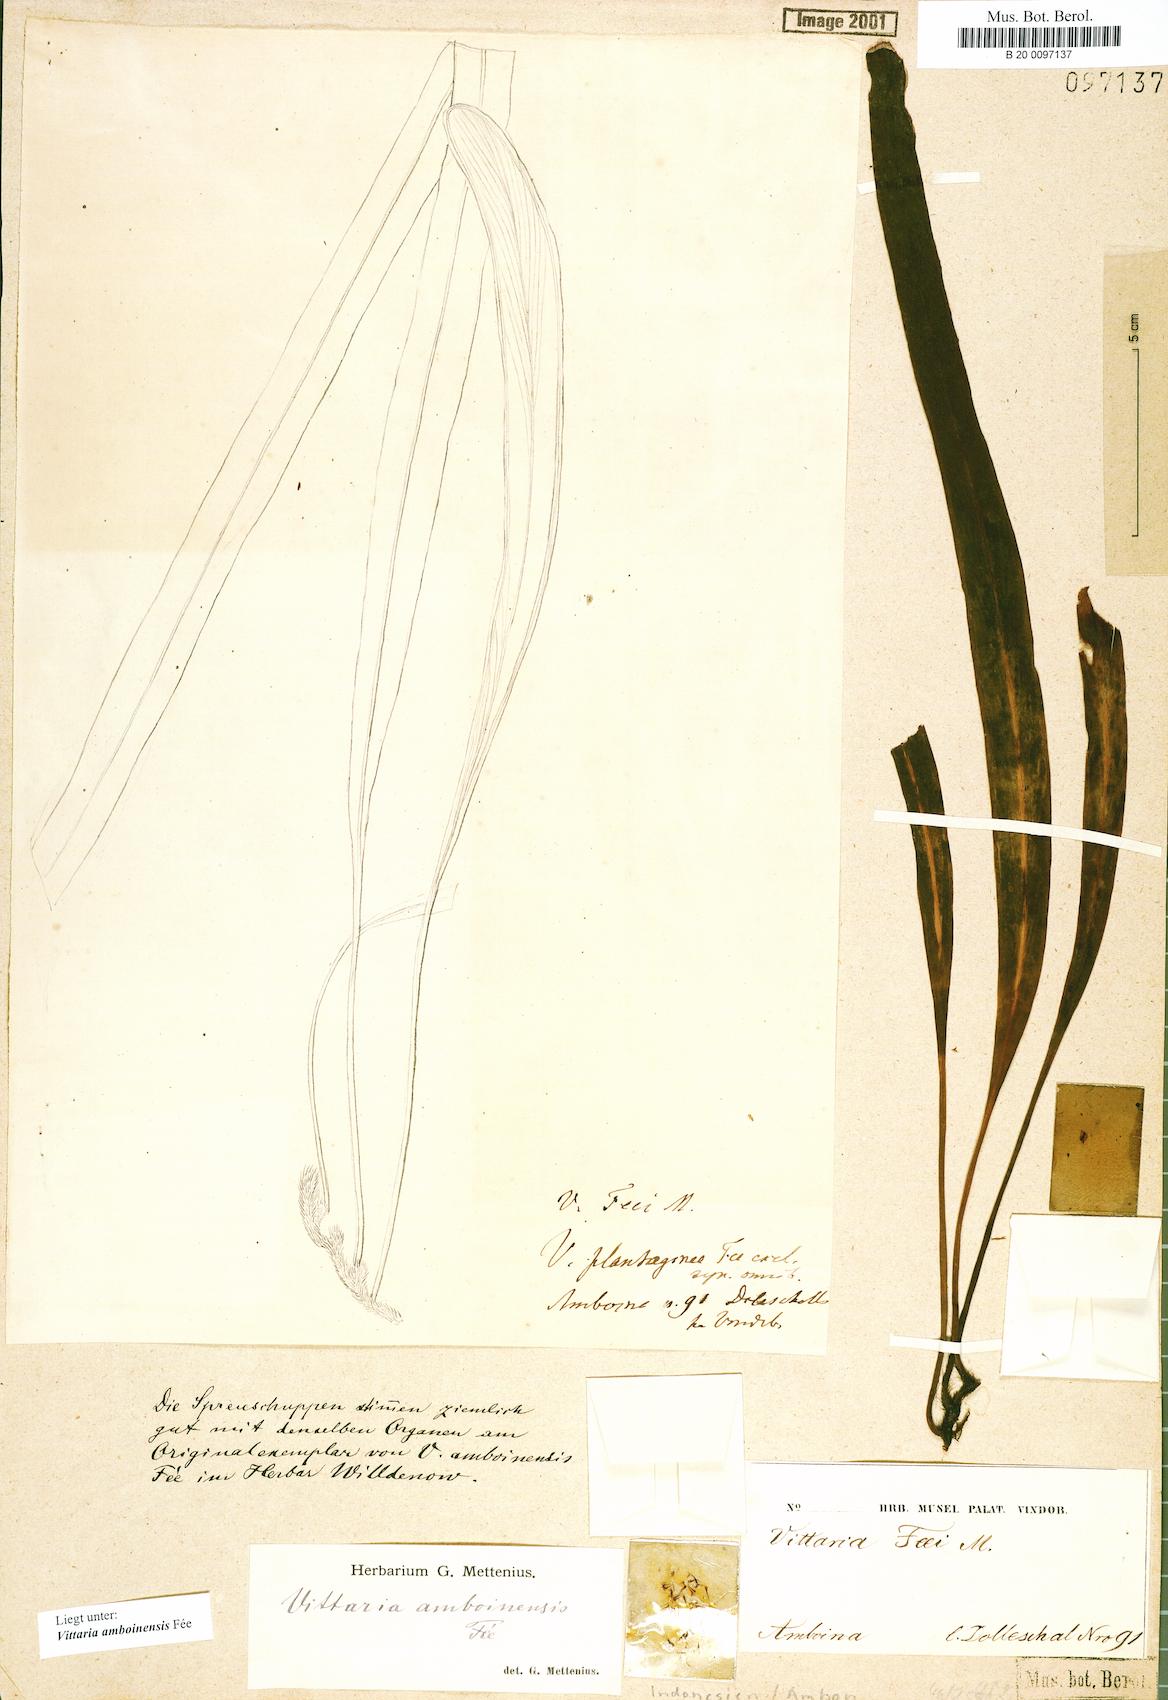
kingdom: Plantae
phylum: Tracheophyta
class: Polypodiopsida
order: Polypodiales
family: Pteridaceae
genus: Haplopteris
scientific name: Haplopteris amboinensis
